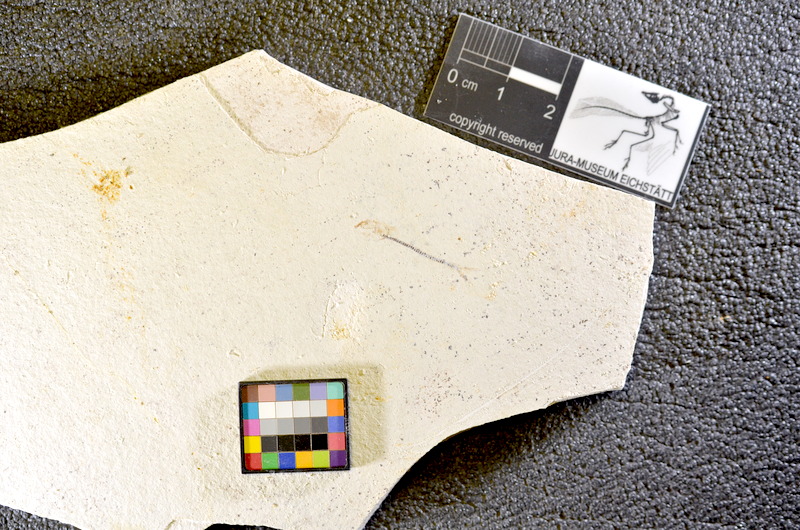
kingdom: Animalia
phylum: Chordata
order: Salmoniformes
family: Orthogonikleithridae
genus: Orthogonikleithrus
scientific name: Orthogonikleithrus hoelli
